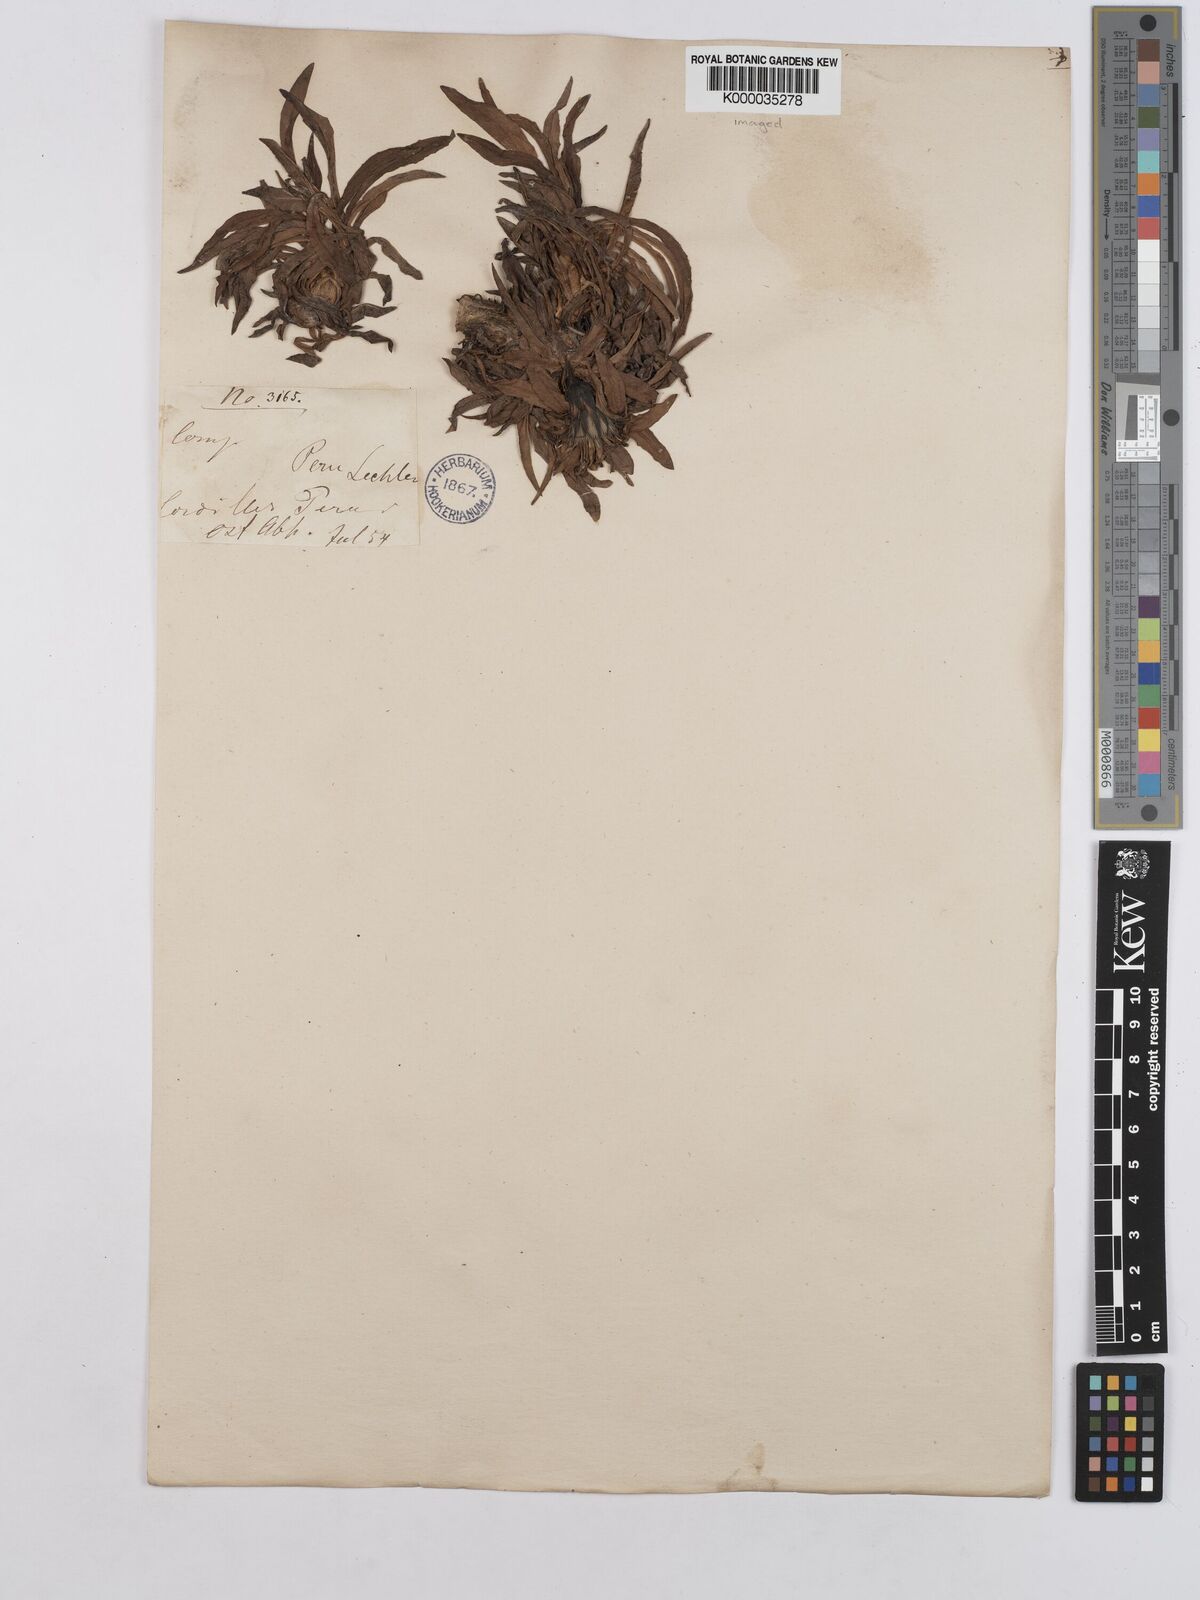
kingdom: Plantae
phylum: Tracheophyta
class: Magnoliopsida
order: Asterales
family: Asteraceae
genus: Hypochaeris
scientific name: Hypochaeris hohenackeri
